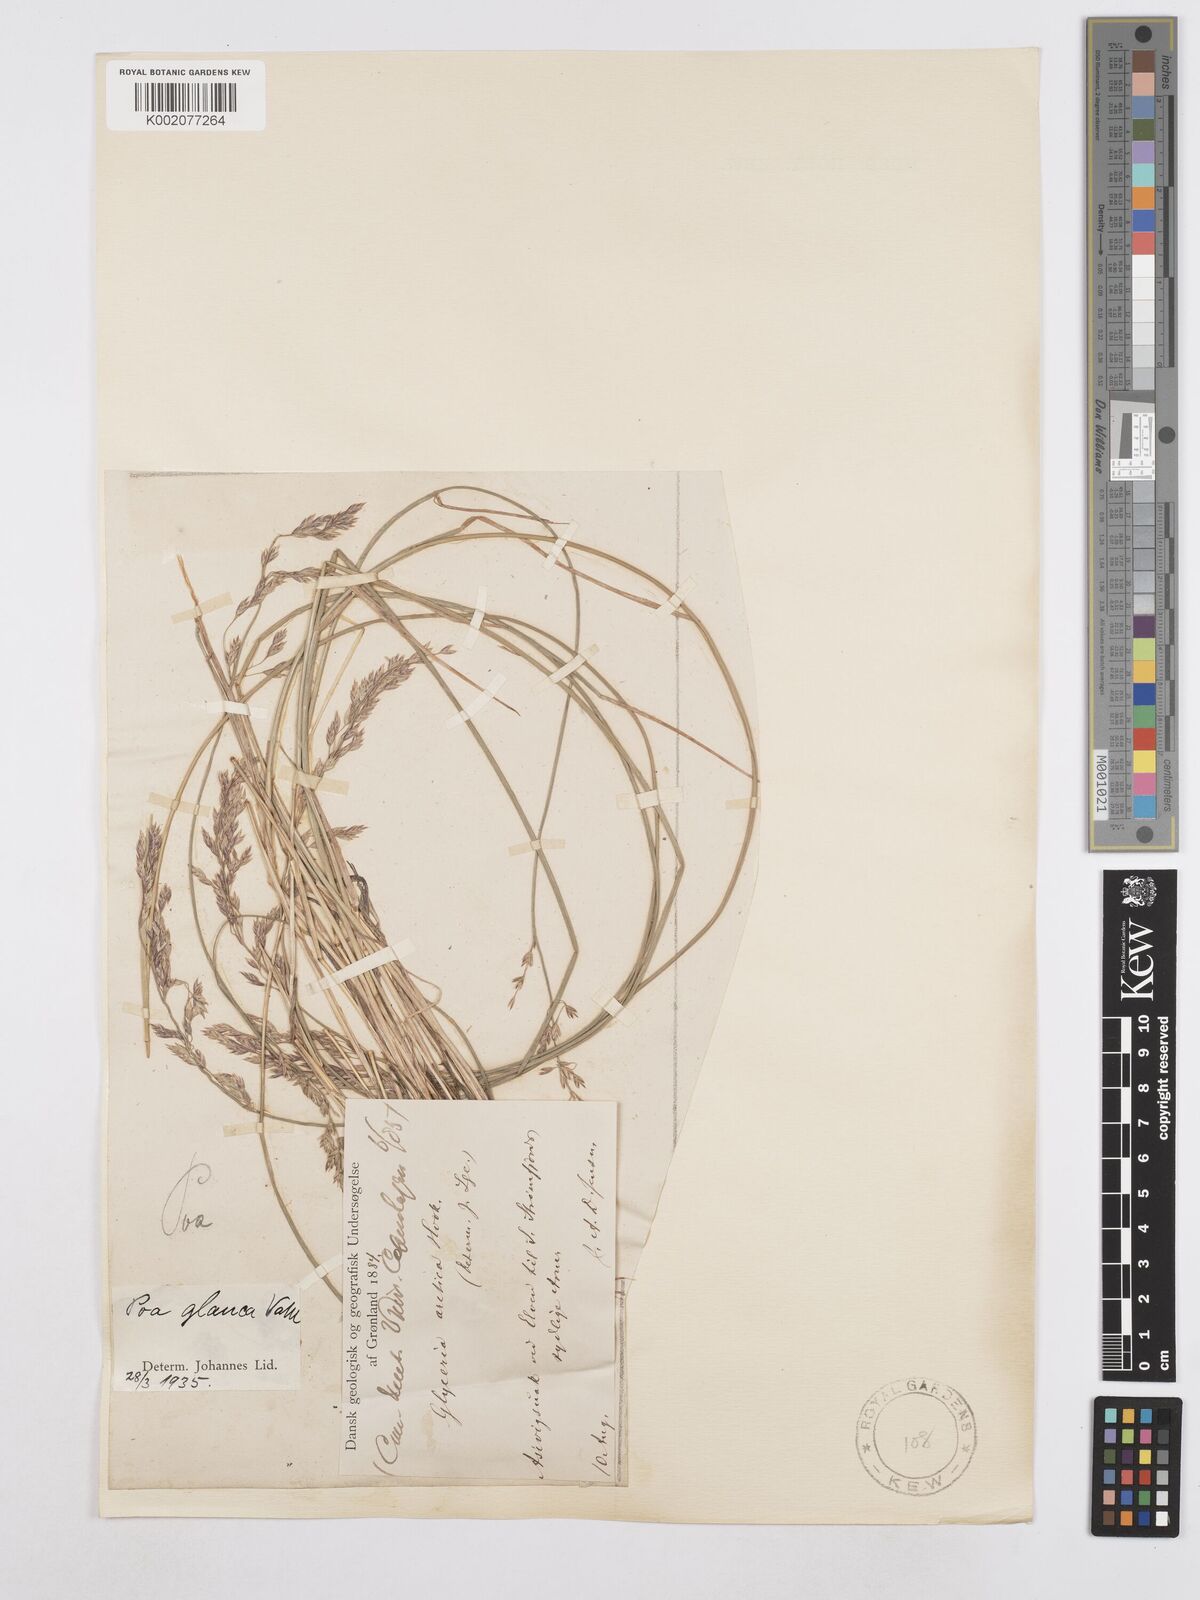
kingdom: Plantae
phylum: Tracheophyta
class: Liliopsida
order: Poales
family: Poaceae
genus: Poa
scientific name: Poa glauca
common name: Glaucous bluegrass
